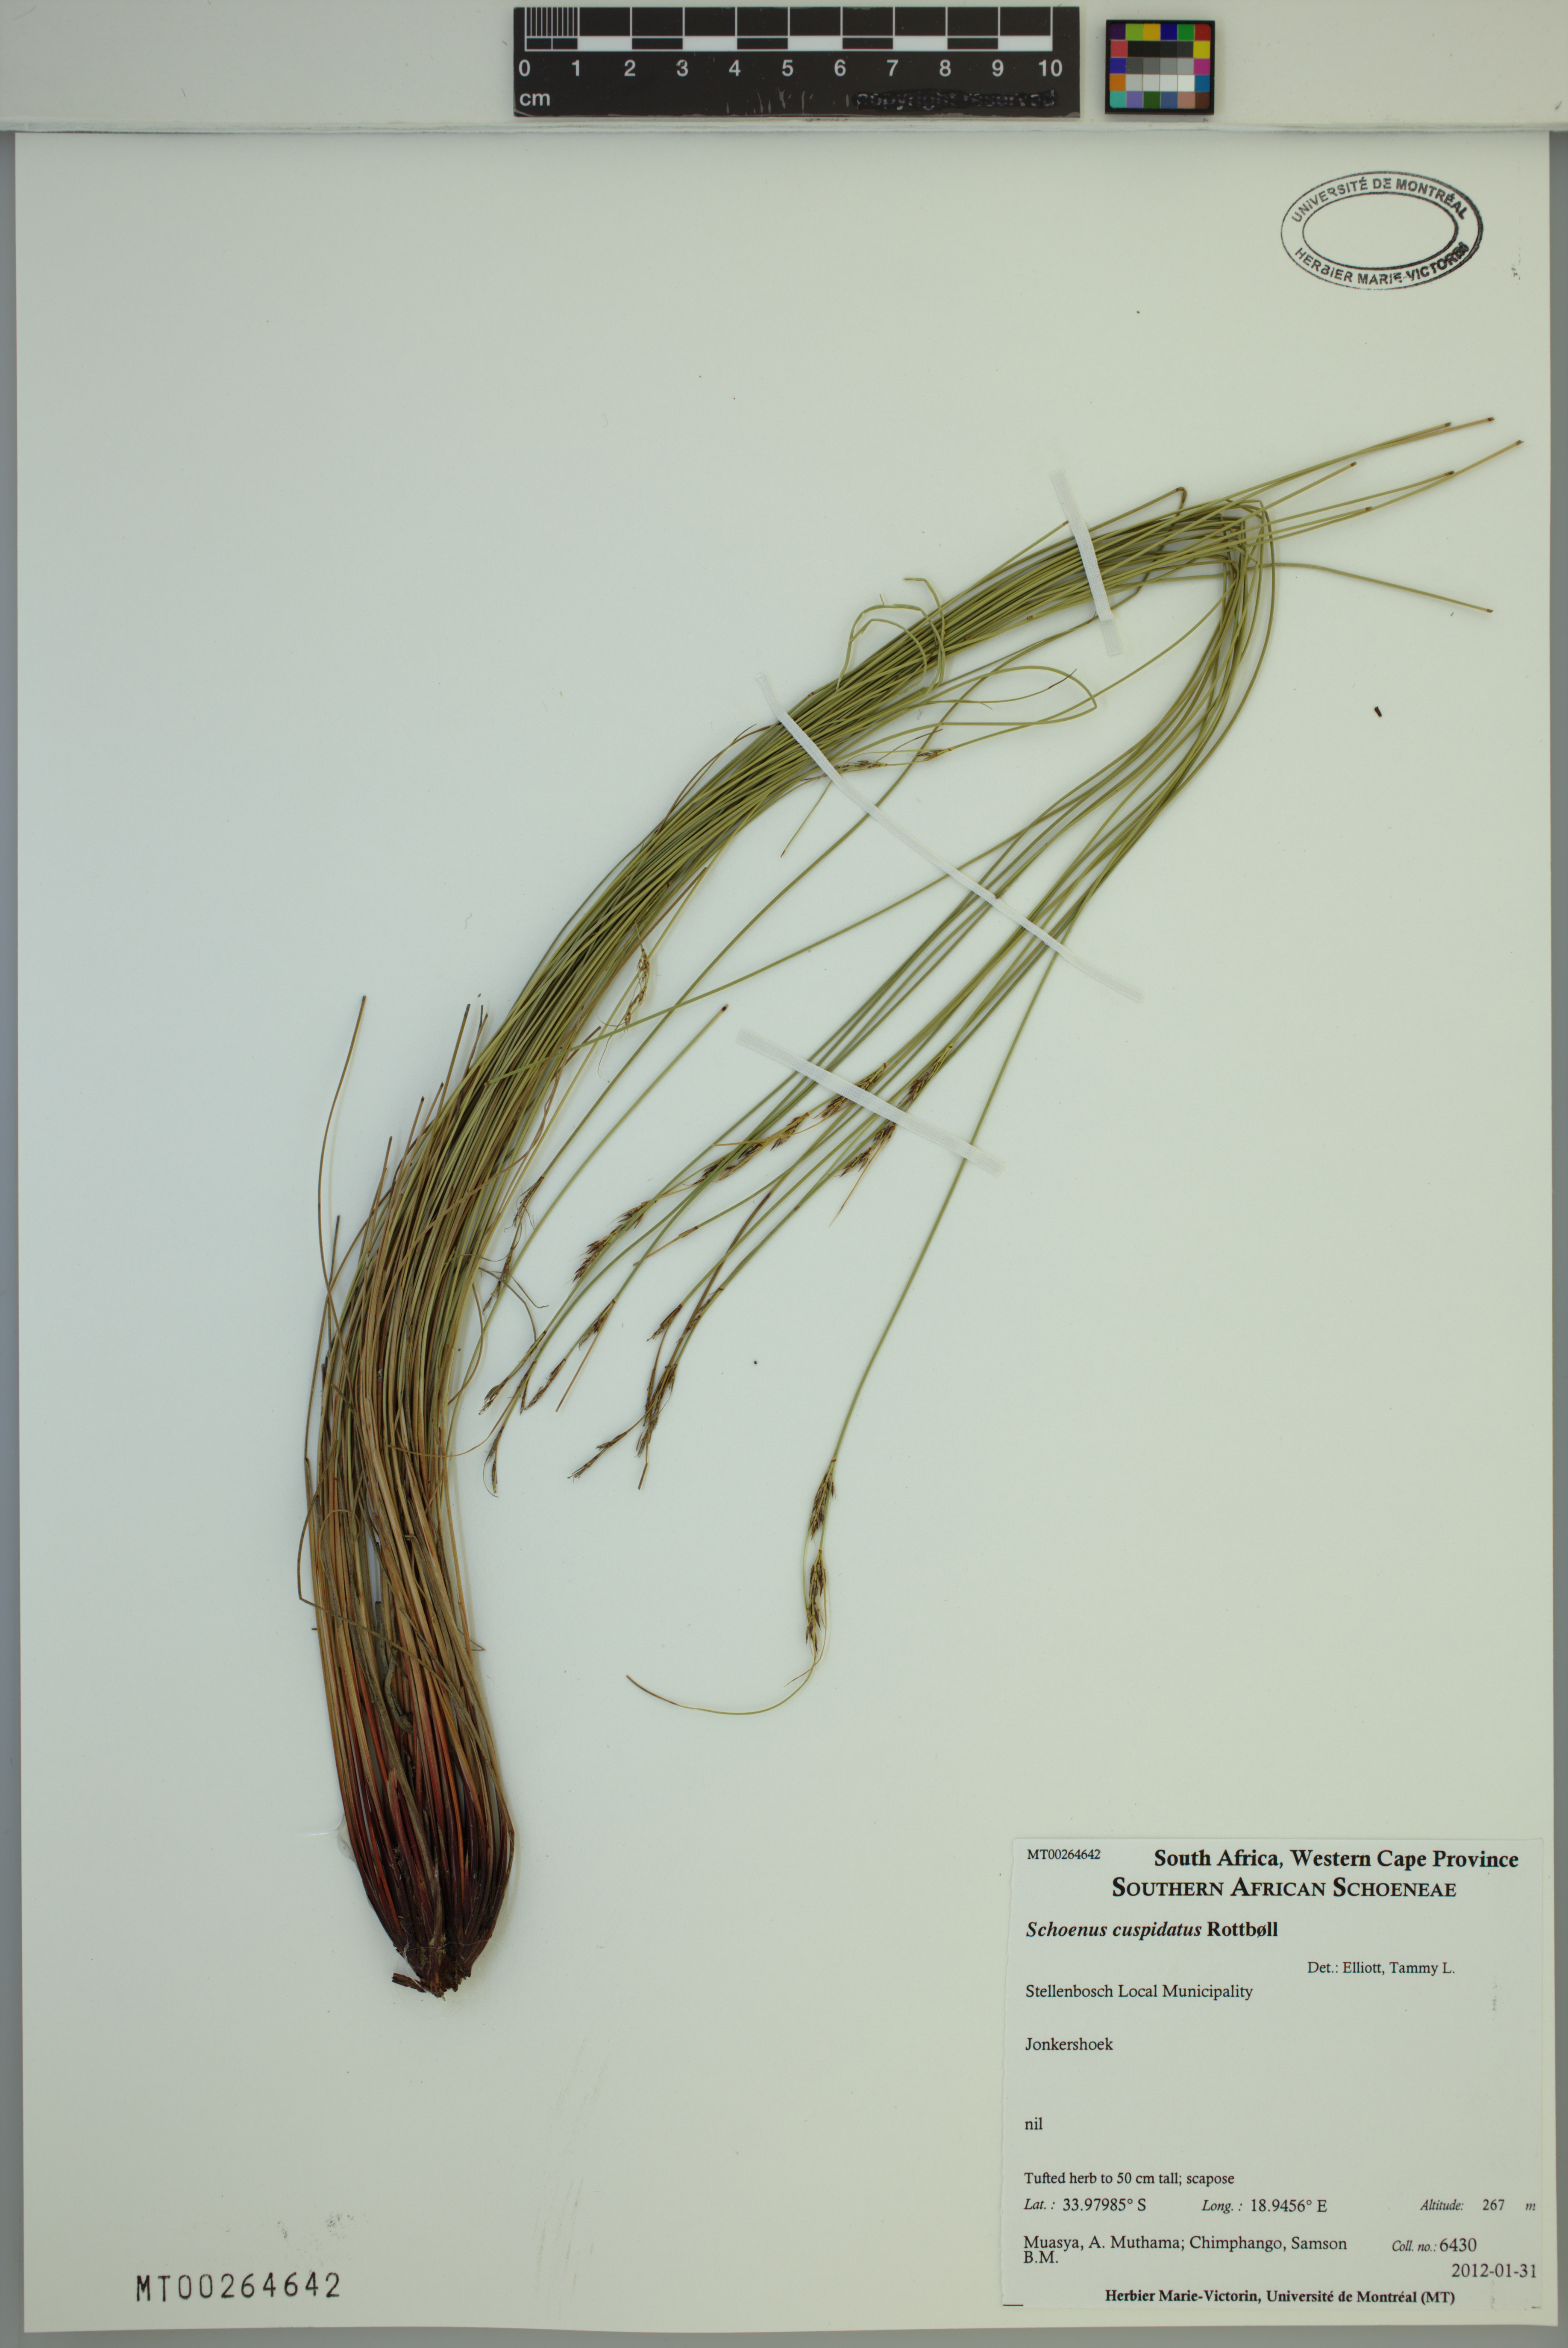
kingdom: Plantae
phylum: Tracheophyta
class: Liliopsida
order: Poales
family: Cyperaceae
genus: Schoenus
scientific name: Schoenus cuspidatus
